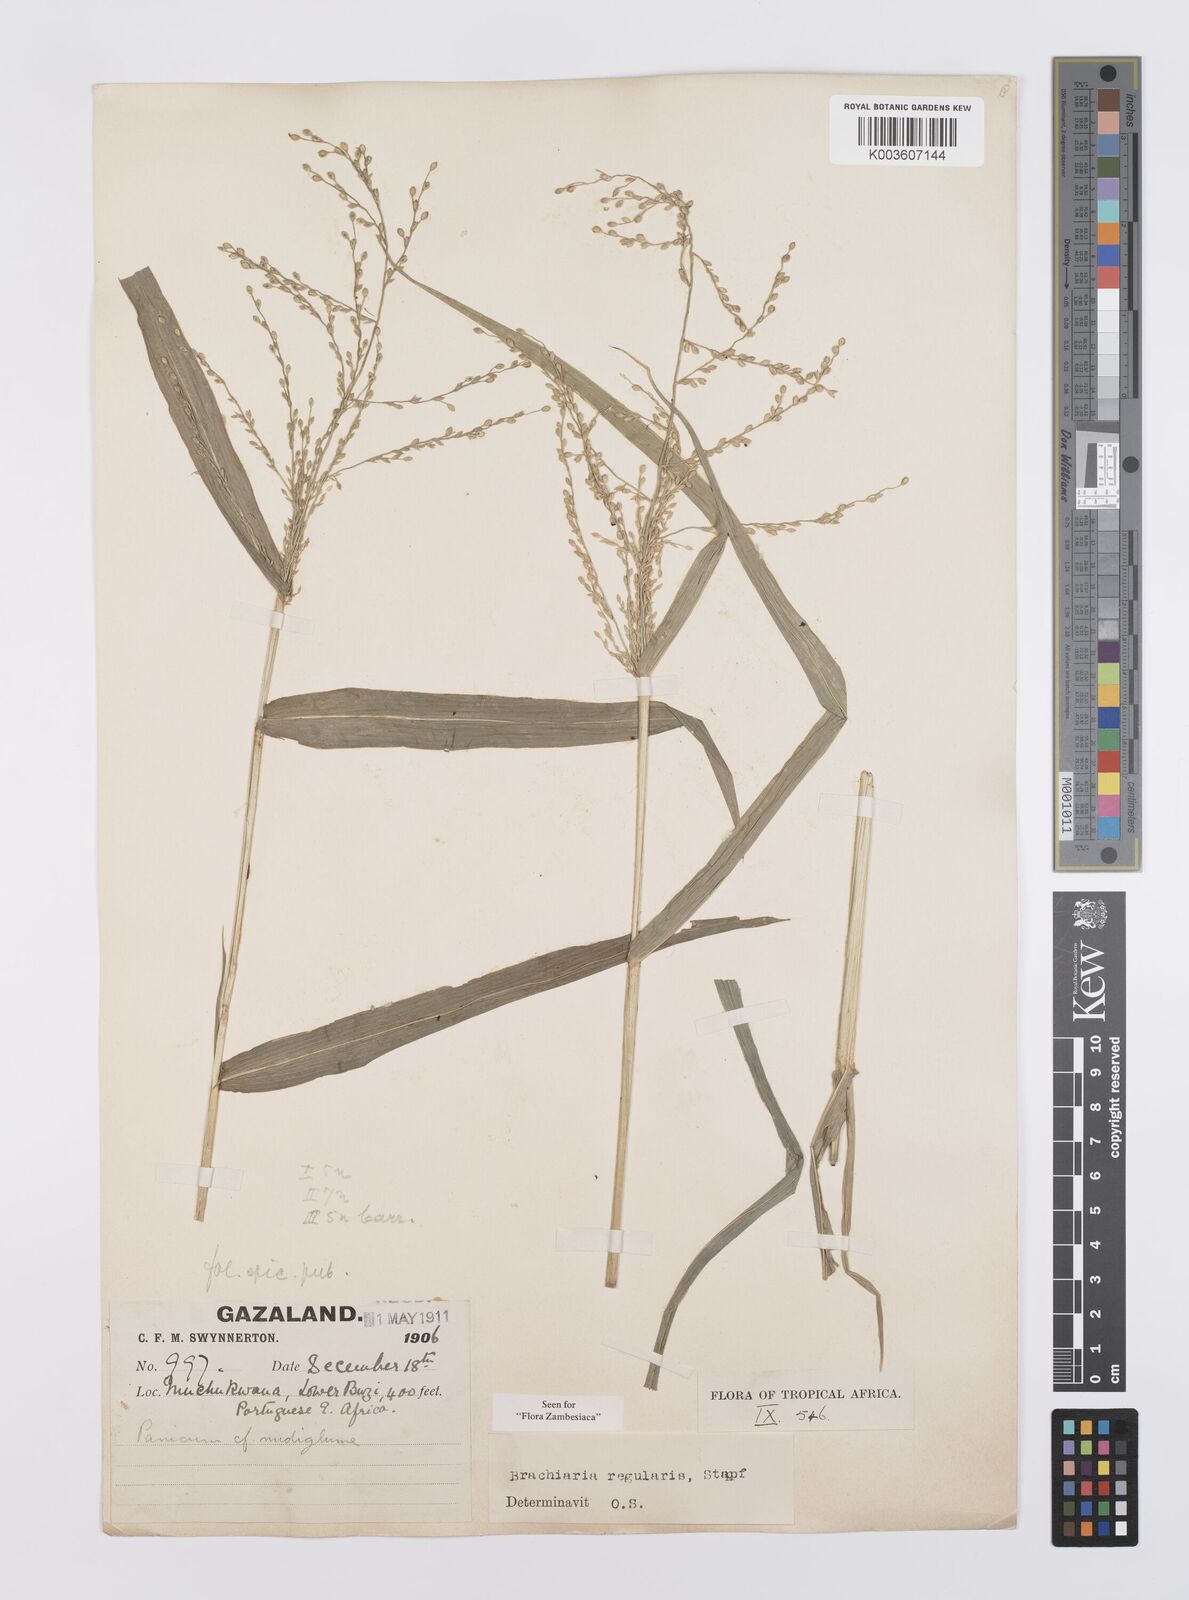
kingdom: Plantae
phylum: Tracheophyta
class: Liliopsida
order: Poales
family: Poaceae
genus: Urochloa
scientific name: Urochloa deflexa
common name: Guinea millet
